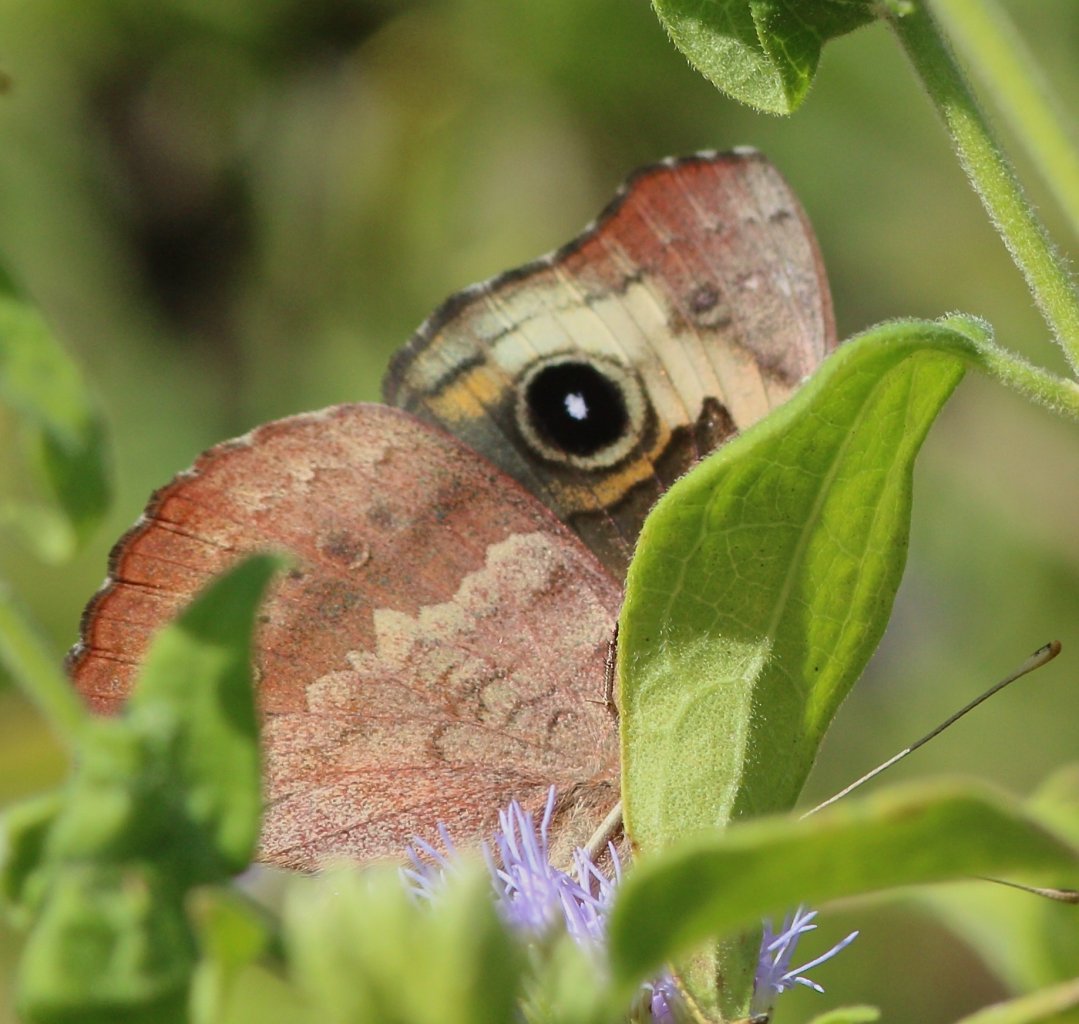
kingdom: Animalia
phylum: Arthropoda
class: Insecta
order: Lepidoptera
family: Nymphalidae
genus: Junonia
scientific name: Junonia lavinia
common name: Tropical Buckeye
